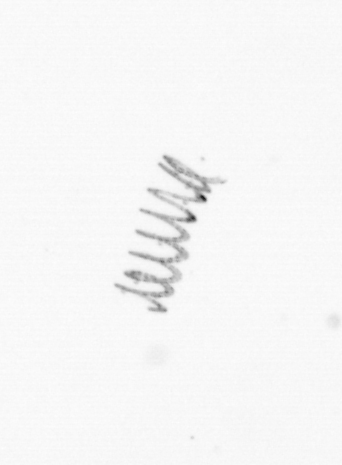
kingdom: Chromista
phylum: Ochrophyta
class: Bacillariophyceae
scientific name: Bacillariophyceae
